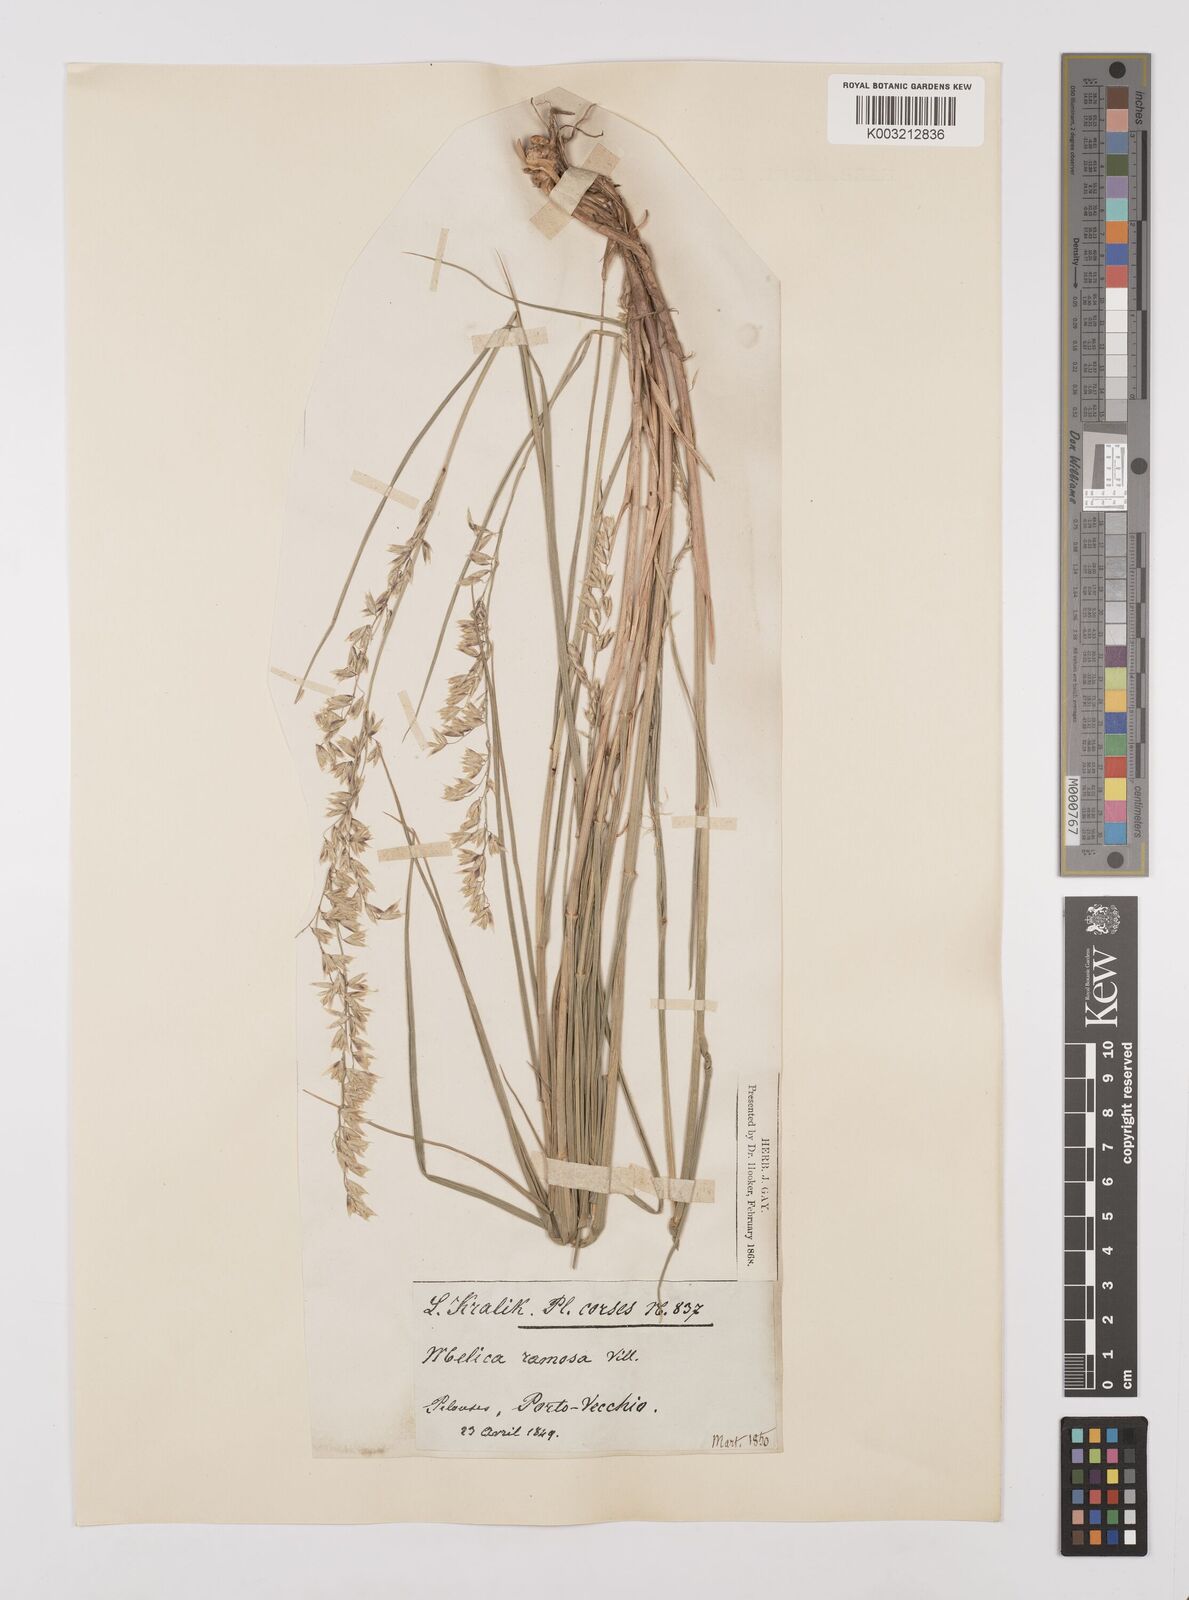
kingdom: Plantae
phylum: Tracheophyta
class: Liliopsida
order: Poales
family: Poaceae
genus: Melica
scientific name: Melica minuta
